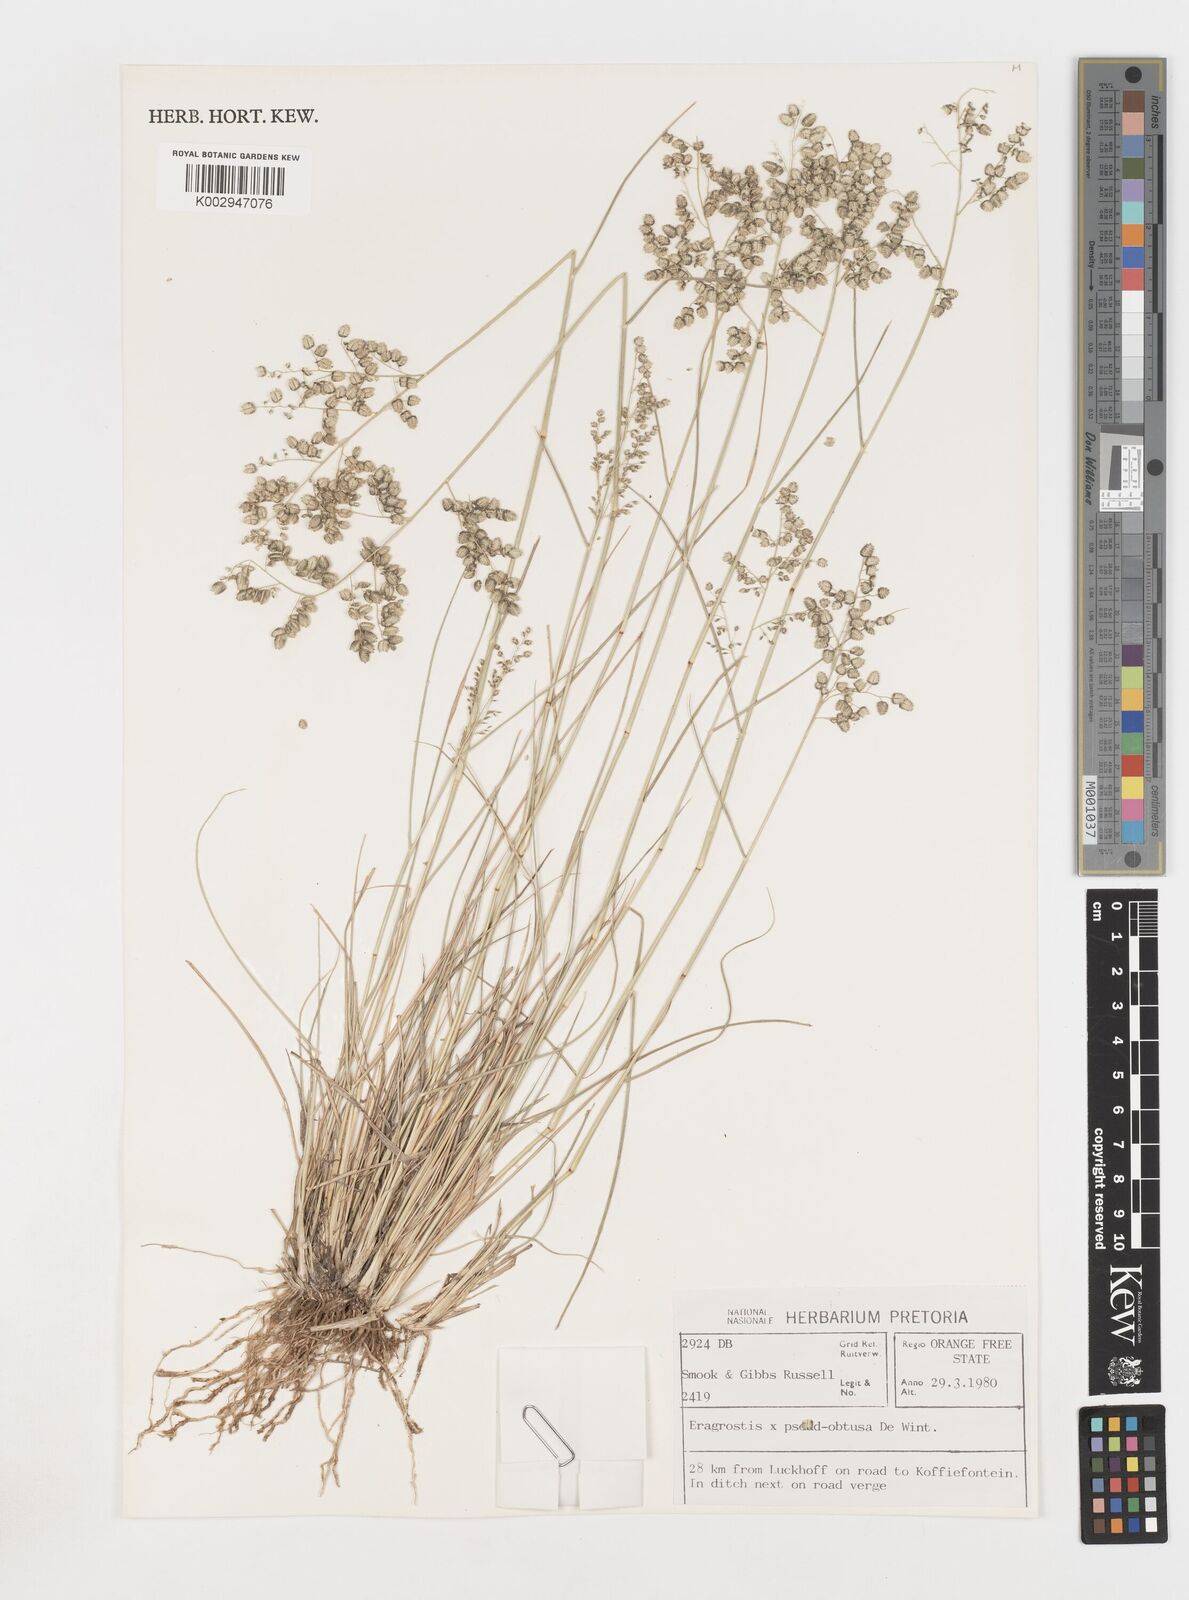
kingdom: Plantae
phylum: Tracheophyta
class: Liliopsida
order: Poales
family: Poaceae
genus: Eragrostis
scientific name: Eragrostis pseudobtusa
